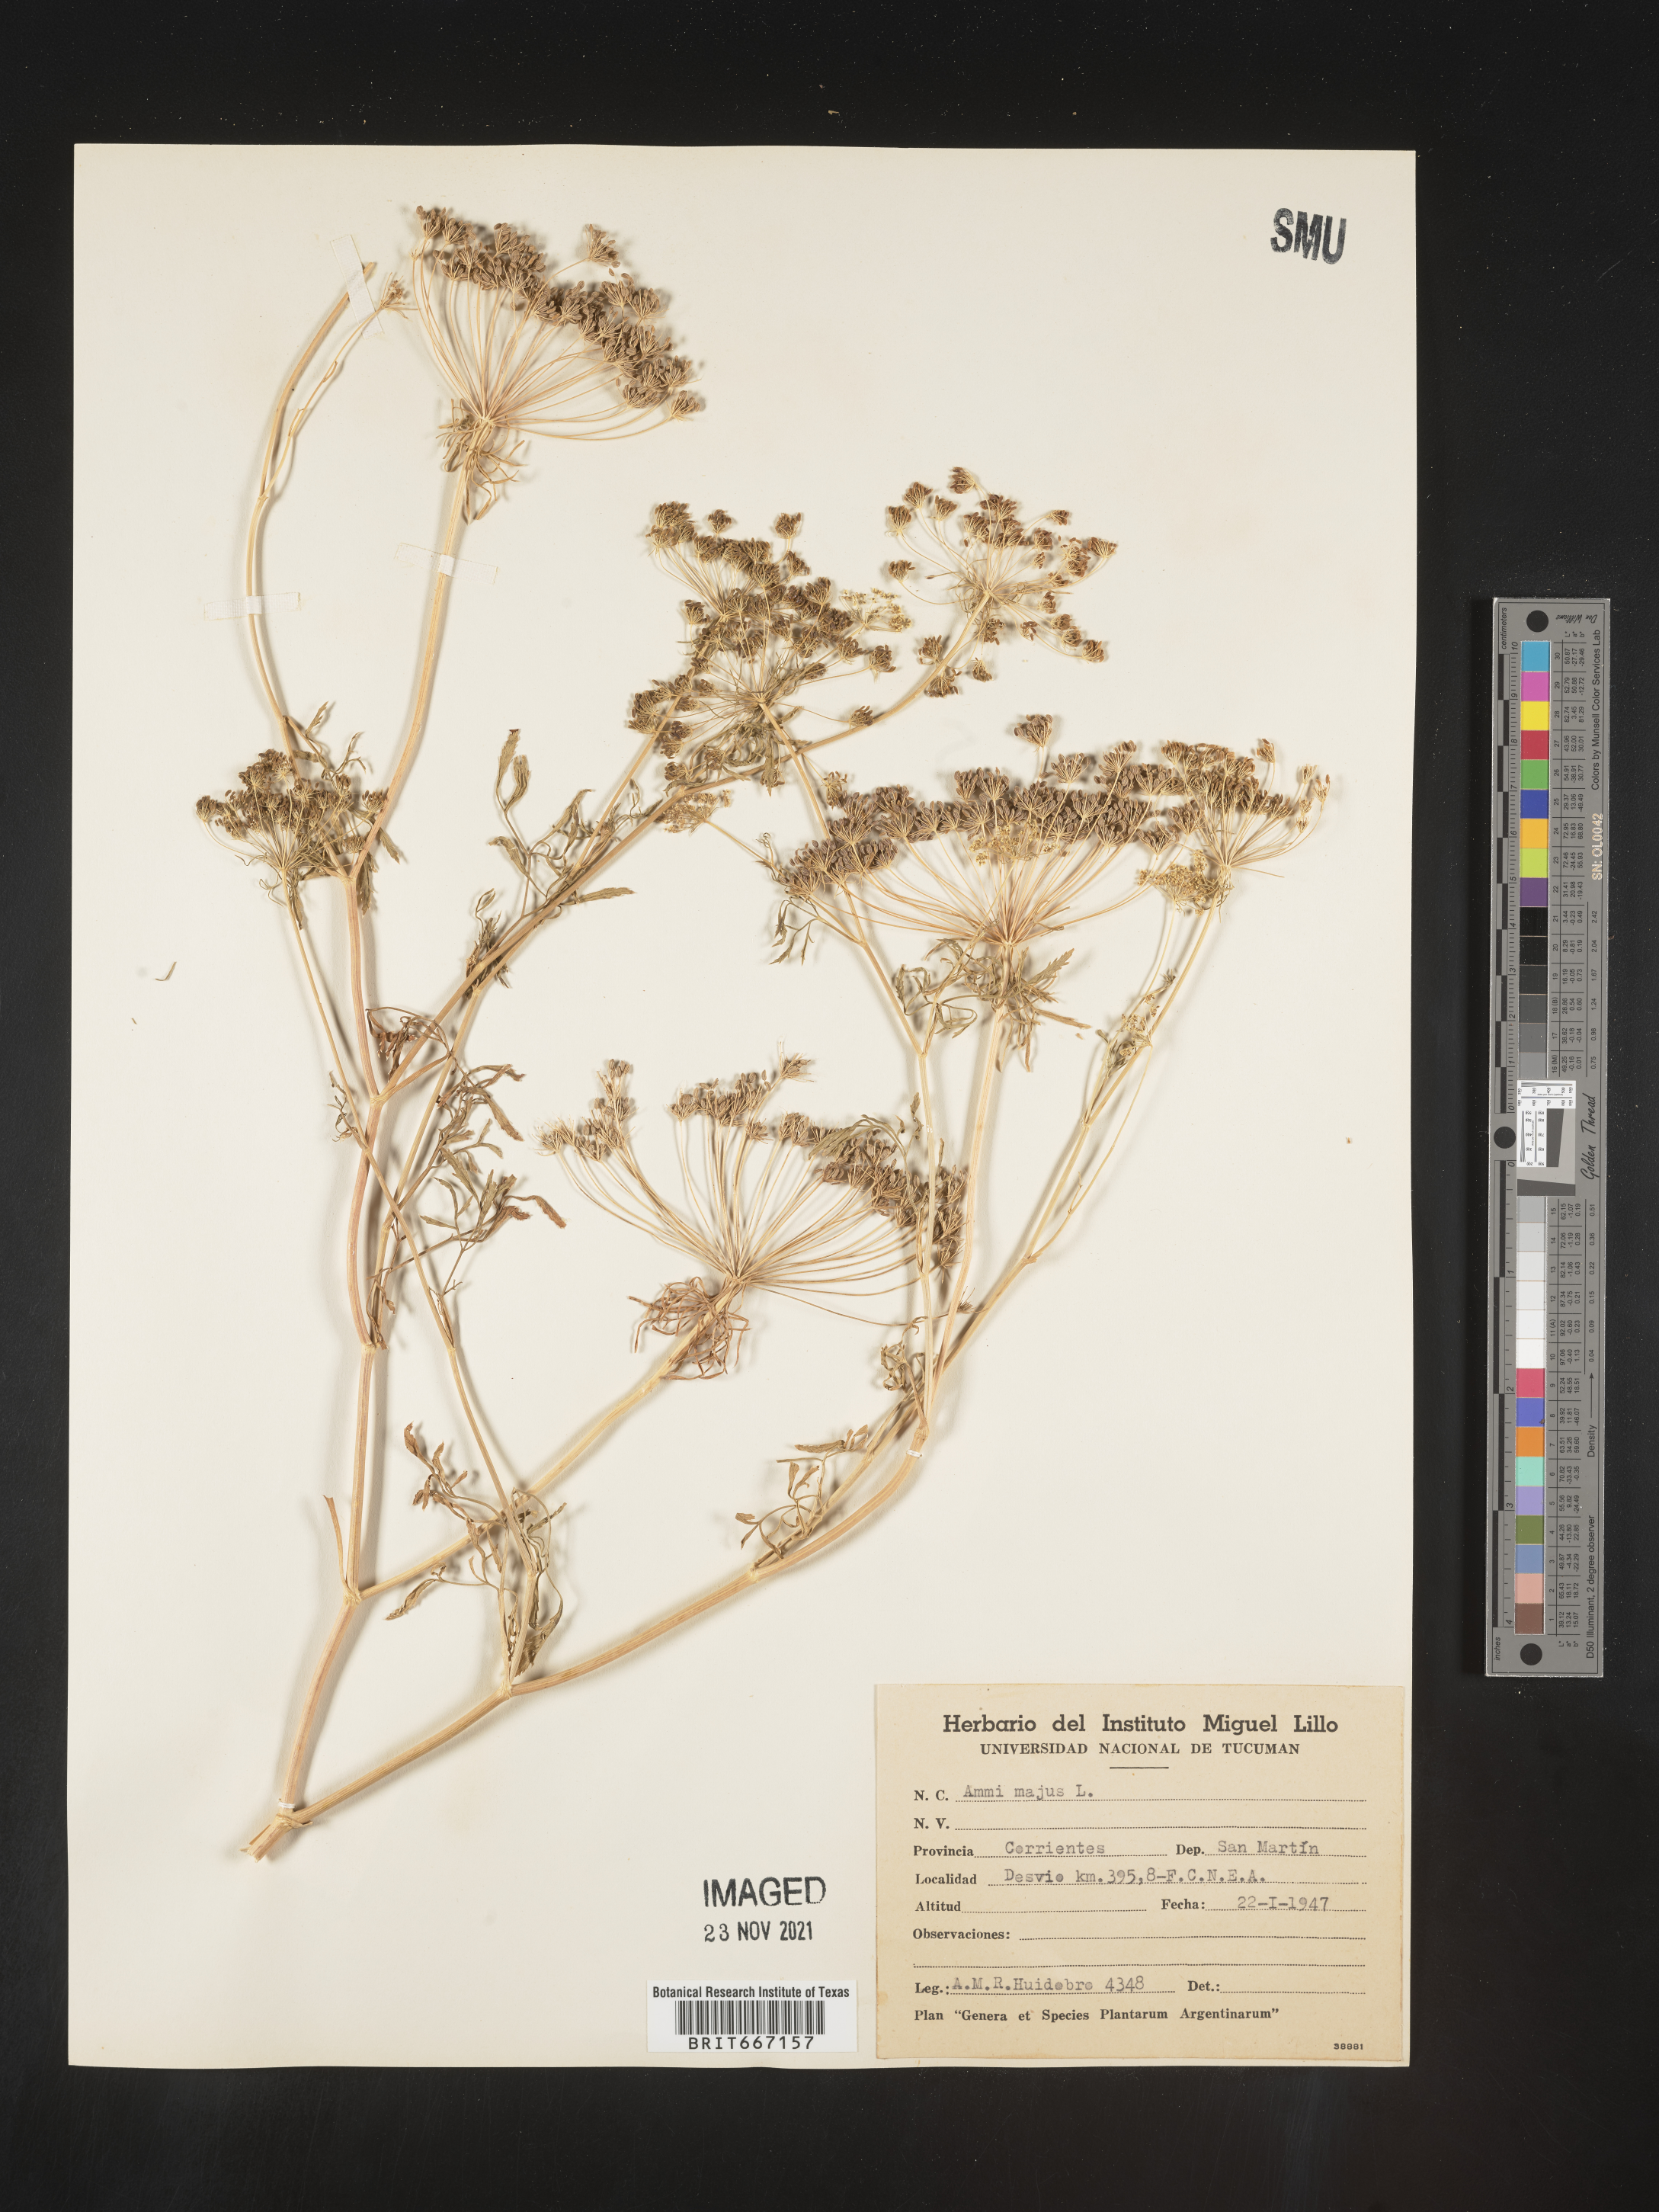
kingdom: Plantae
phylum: Tracheophyta
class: Magnoliopsida
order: Apiales
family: Apiaceae
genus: Ammi
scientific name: Ammi
